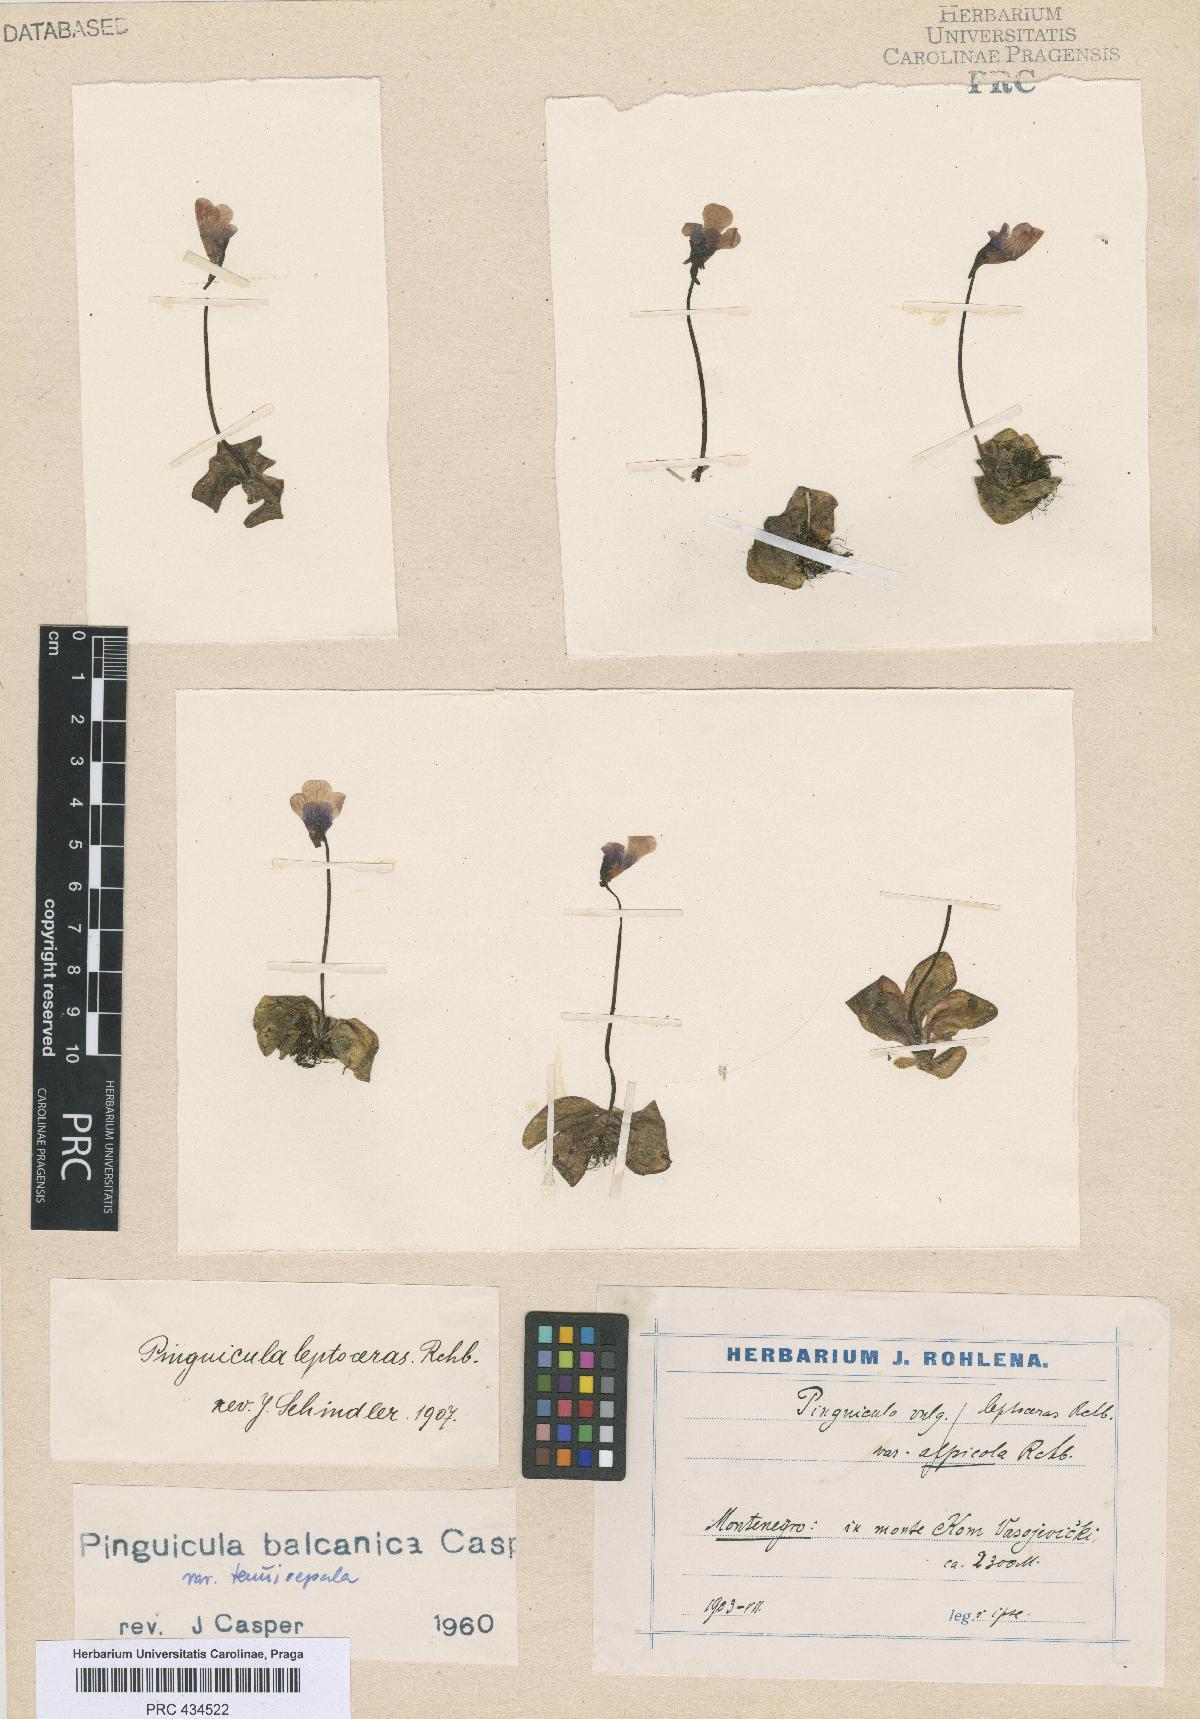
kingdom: Plantae
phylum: Tracheophyta
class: Magnoliopsida
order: Lamiales
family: Lentibulariaceae
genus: Pinguicula
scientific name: Pinguicula balcanica
